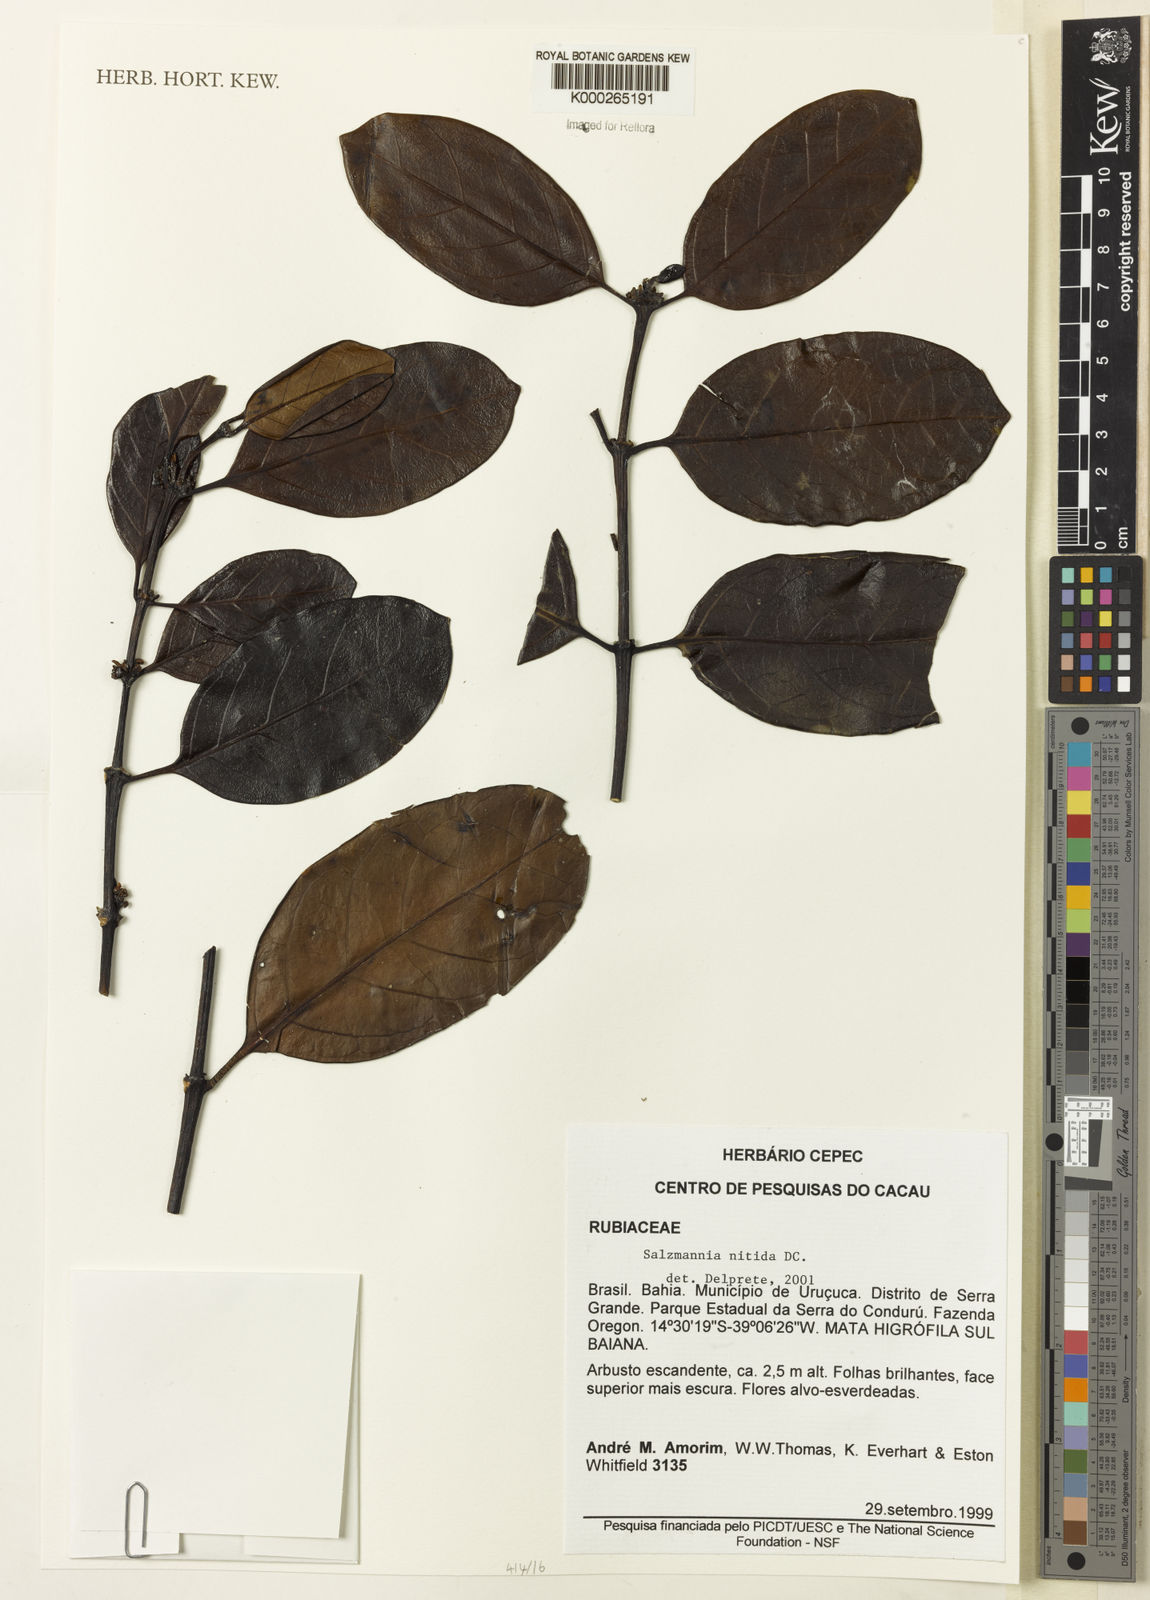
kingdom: Plantae
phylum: Tracheophyta
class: Magnoliopsida
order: Gentianales
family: Rubiaceae
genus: Salzmannia
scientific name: Salzmannia nitida
